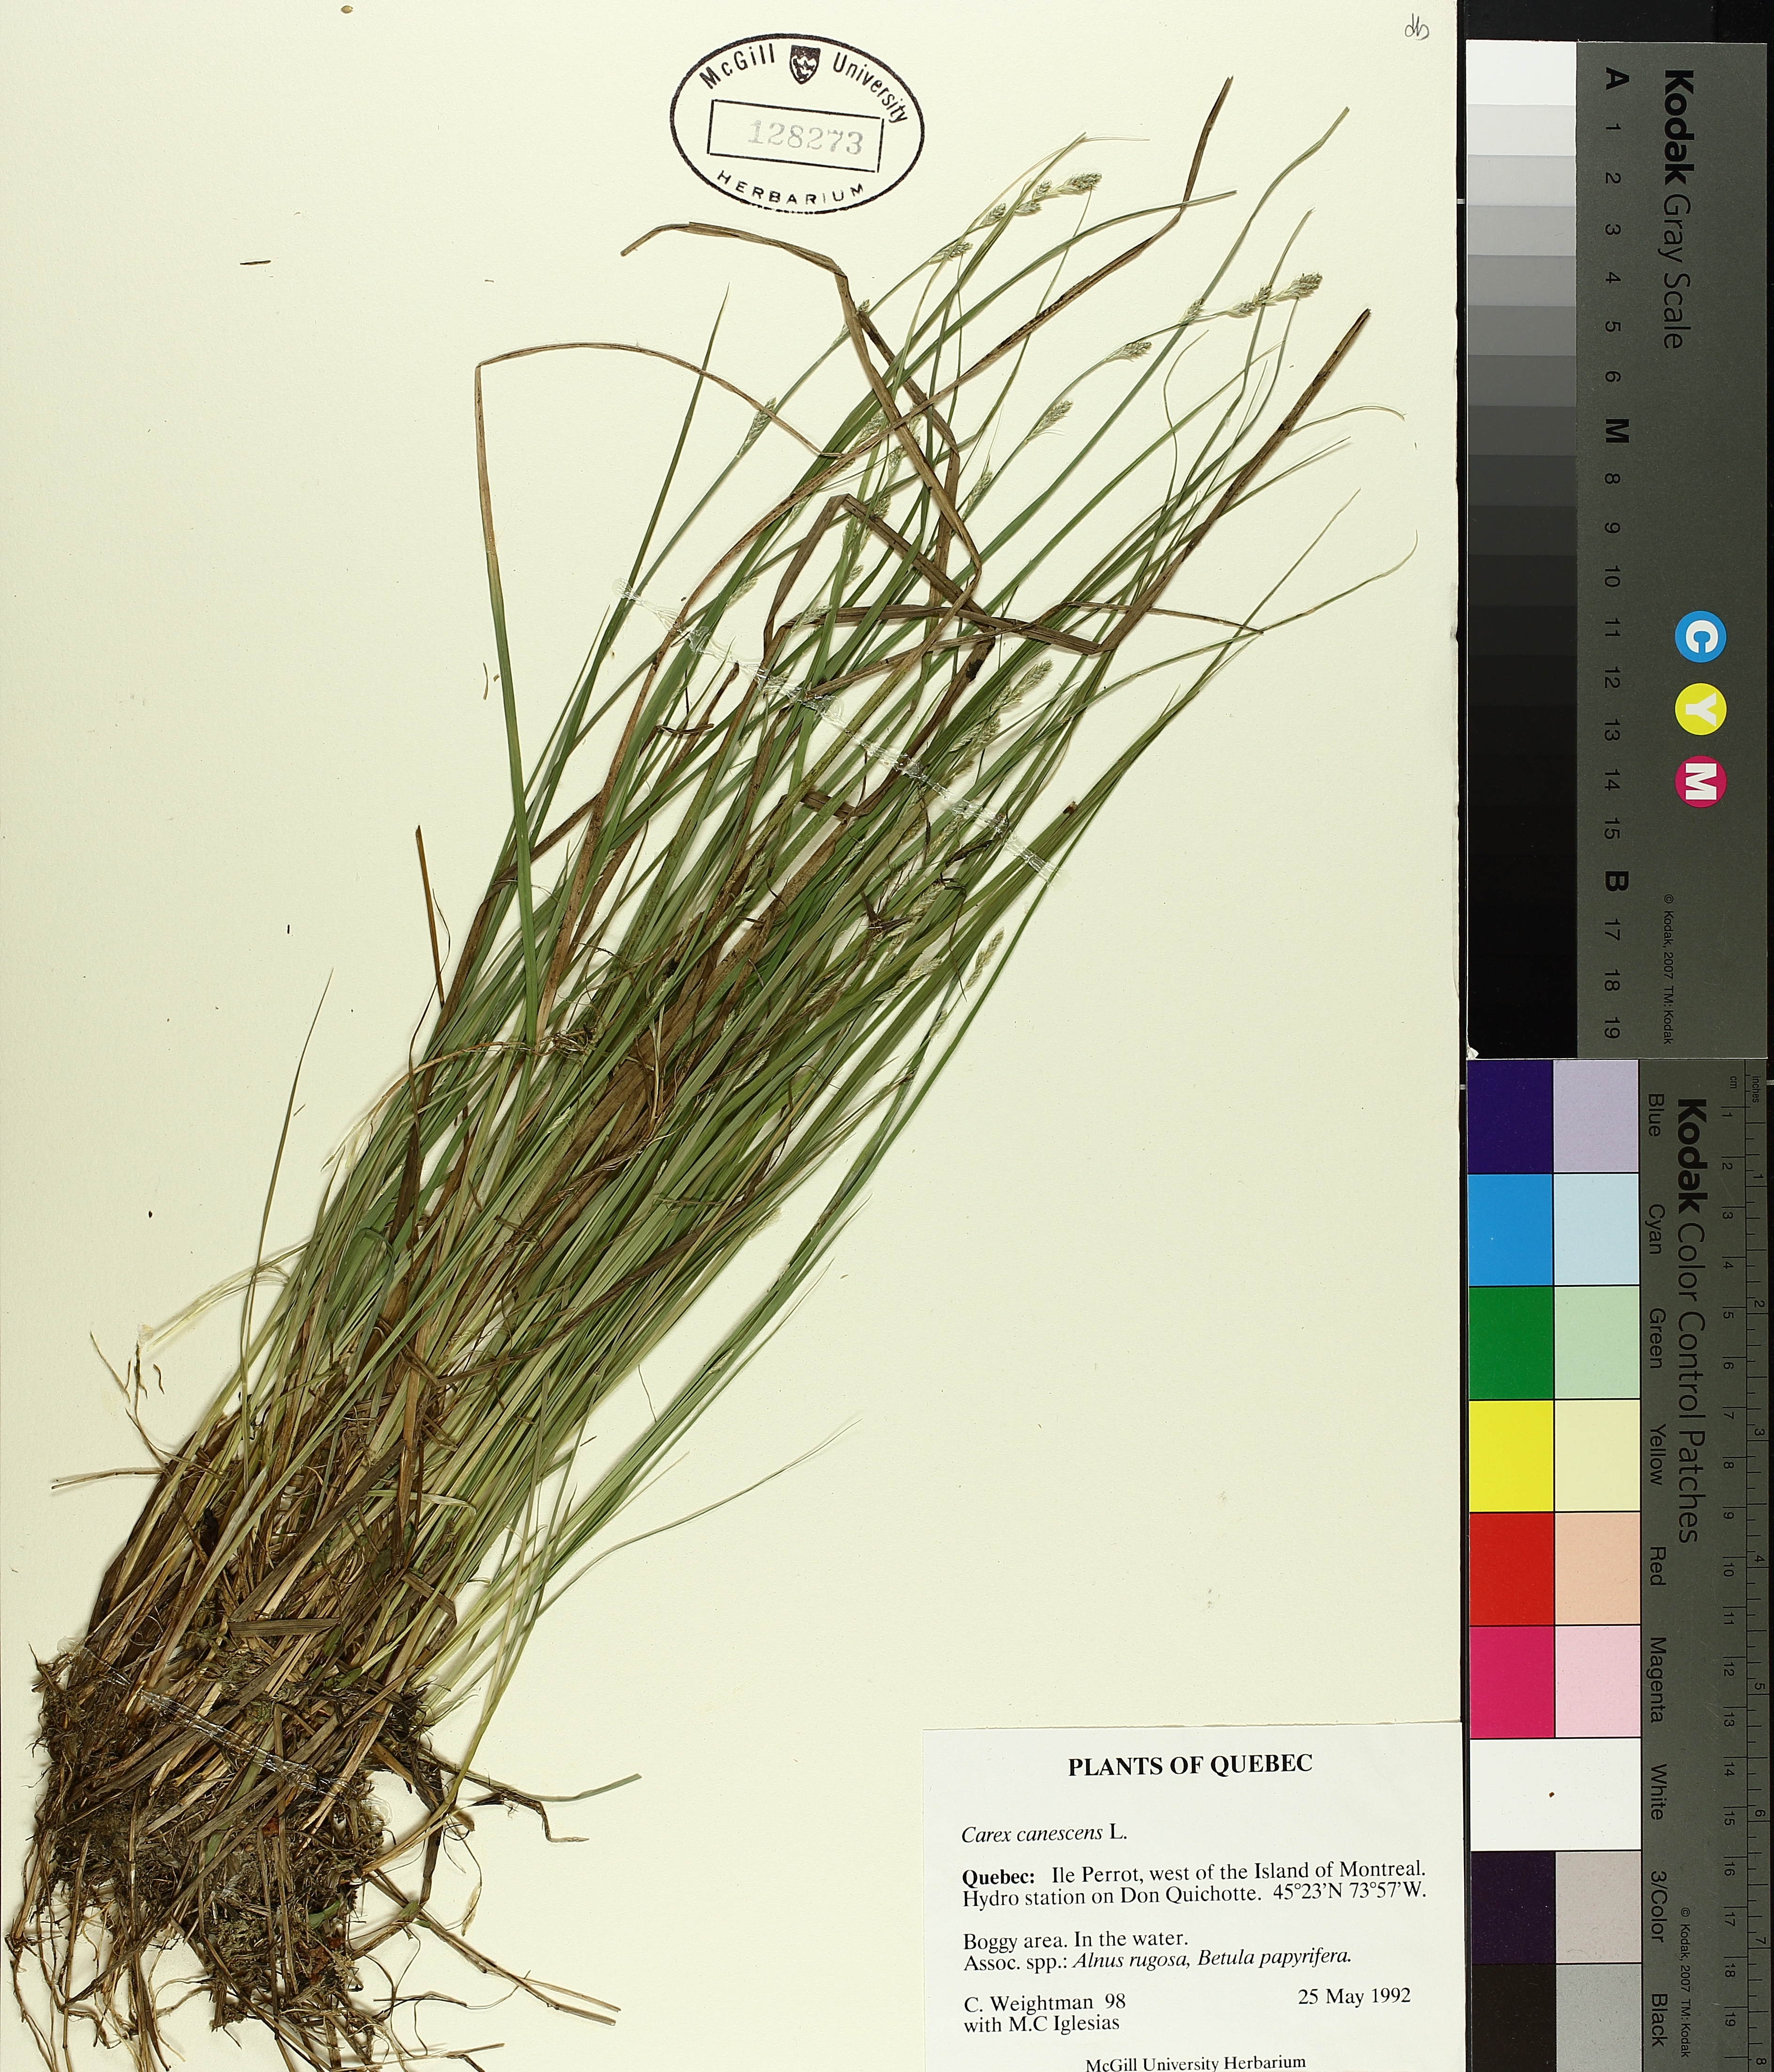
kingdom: Plantae
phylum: Tracheophyta
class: Liliopsida
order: Poales
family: Cyperaceae
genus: Carex
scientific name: Carex canescens
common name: White sedge
